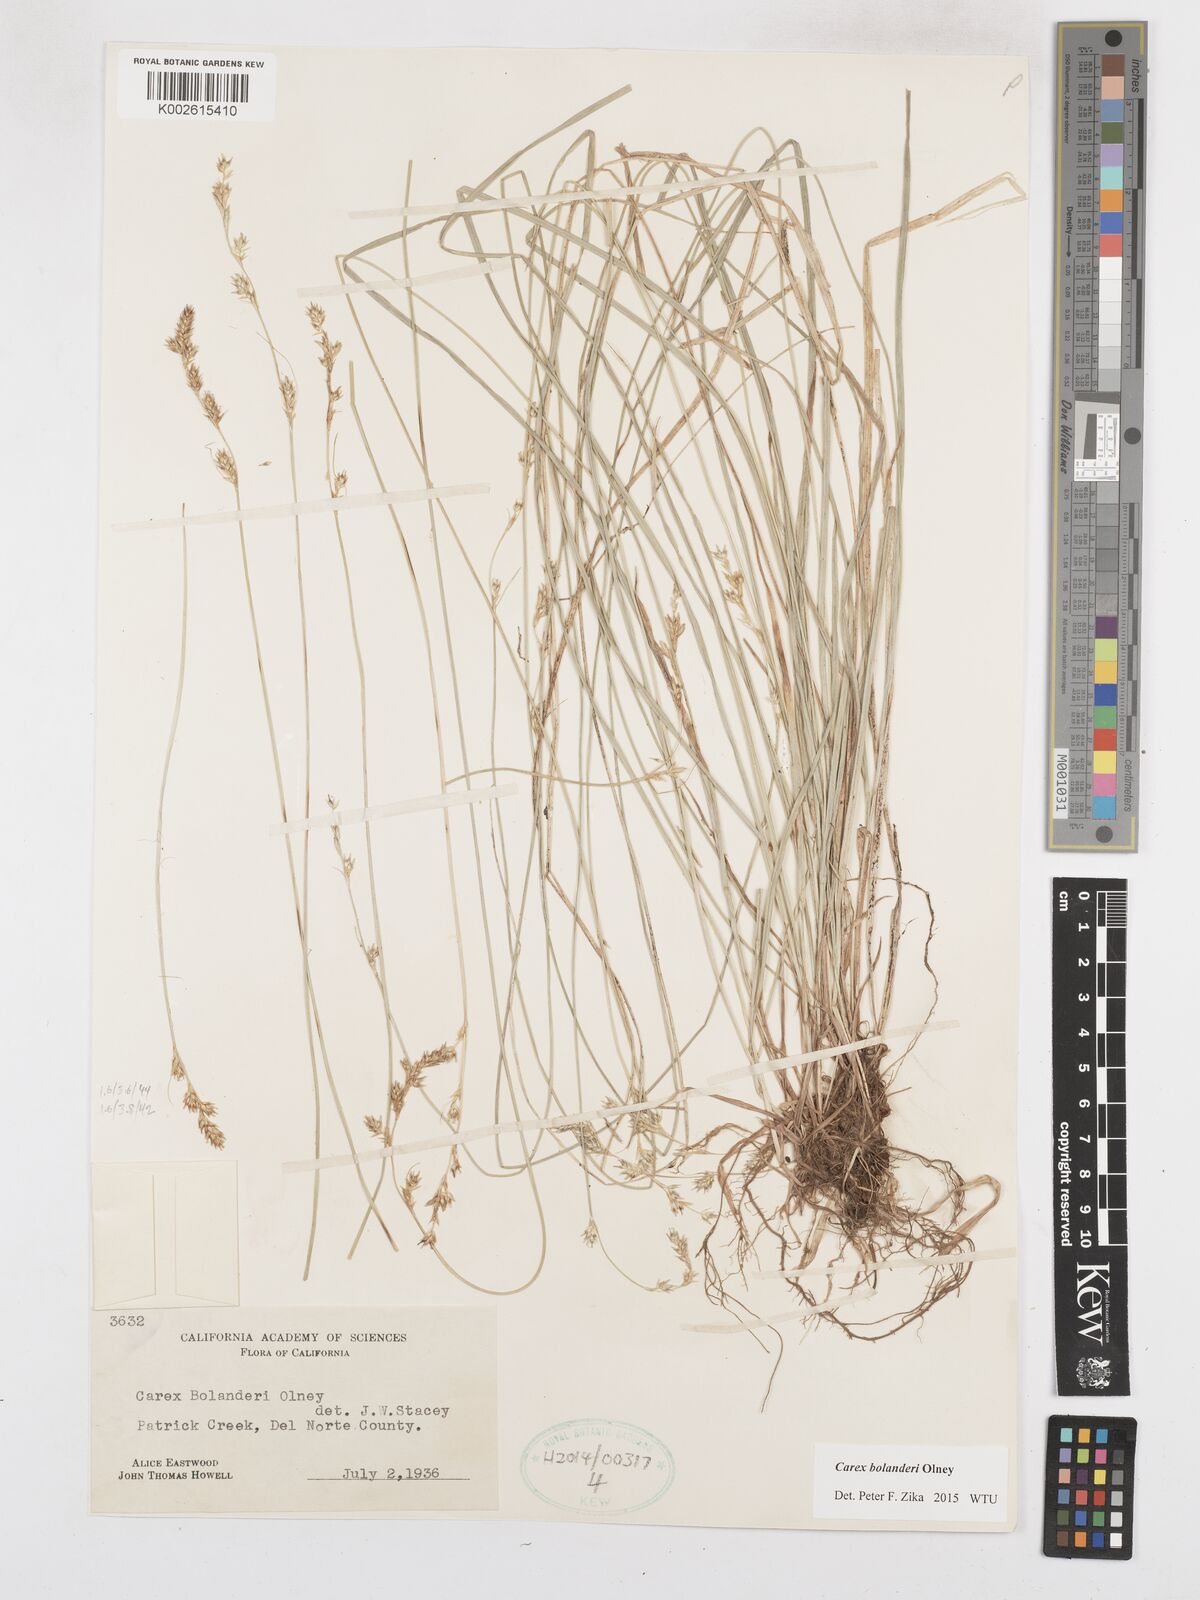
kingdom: Plantae
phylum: Tracheophyta
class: Liliopsida
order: Poales
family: Cyperaceae
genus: Carex
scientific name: Carex bolanderi
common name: Bolander's sedge
